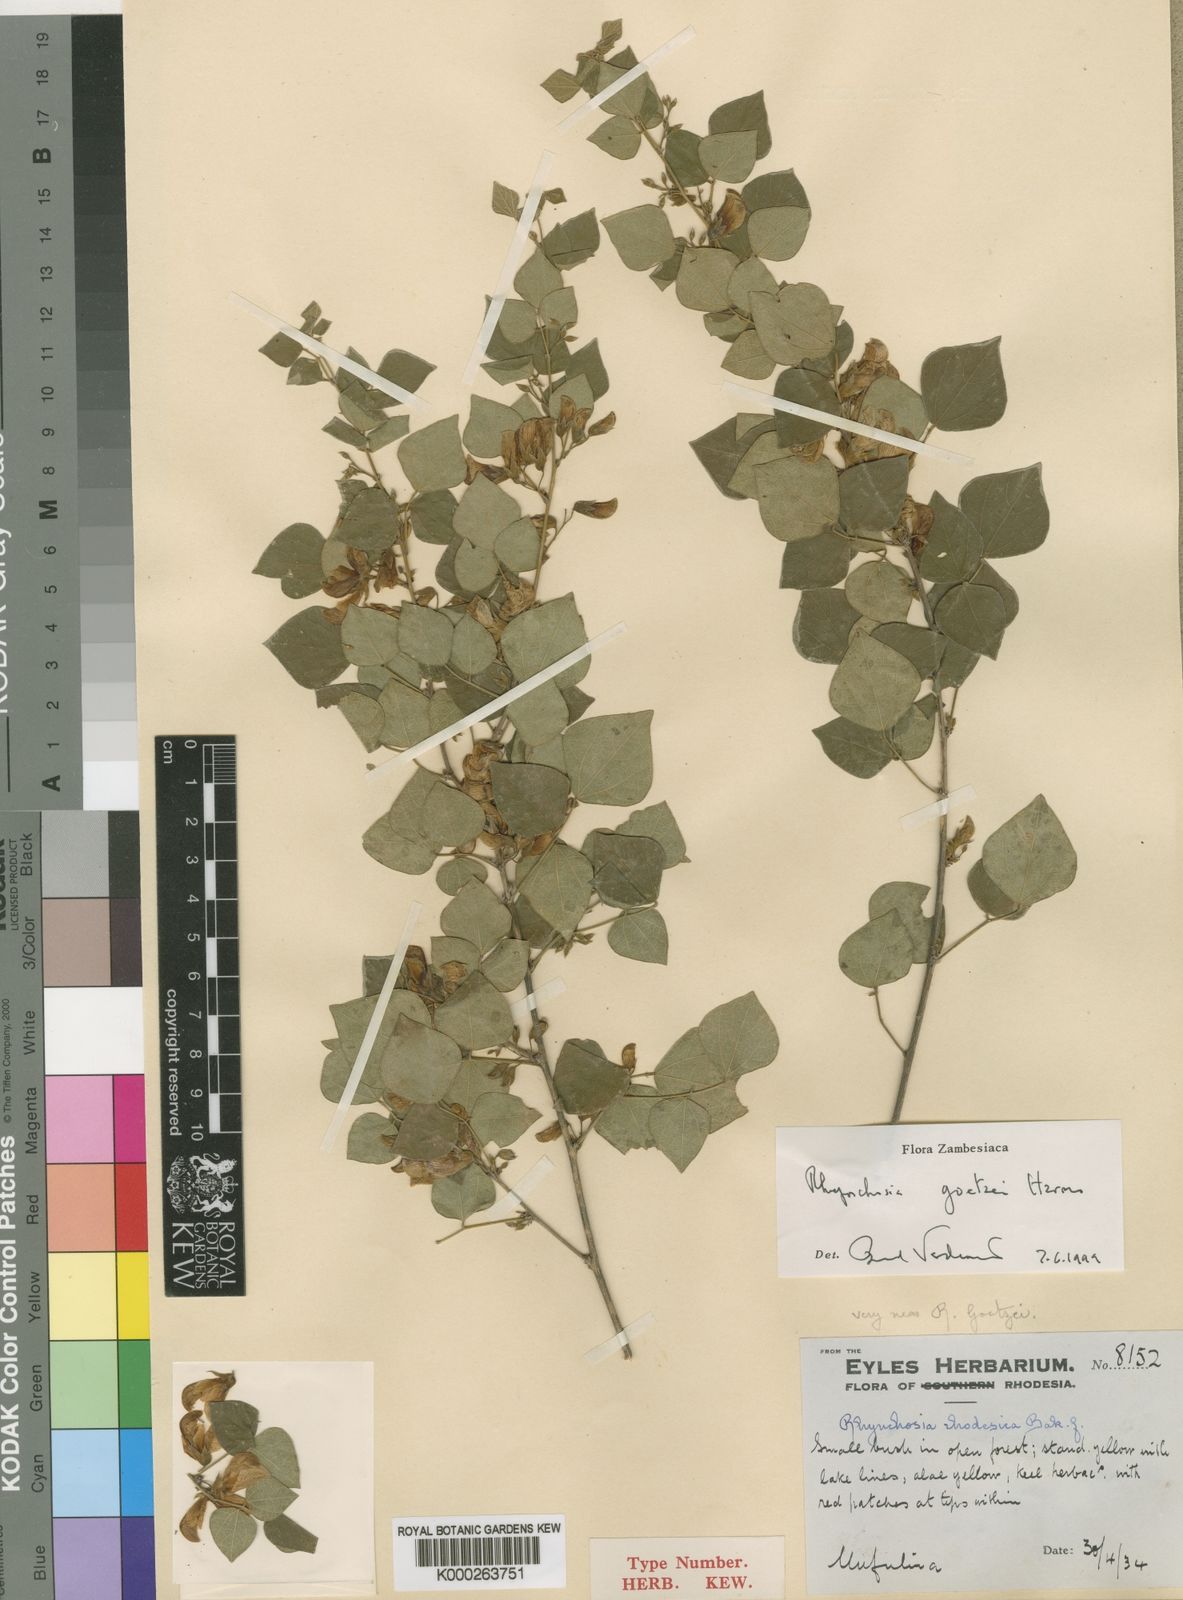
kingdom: Plantae
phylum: Tracheophyta
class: Magnoliopsida
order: Fabales
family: Fabaceae
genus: Rhynchosia
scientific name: Rhynchosia goetzei
